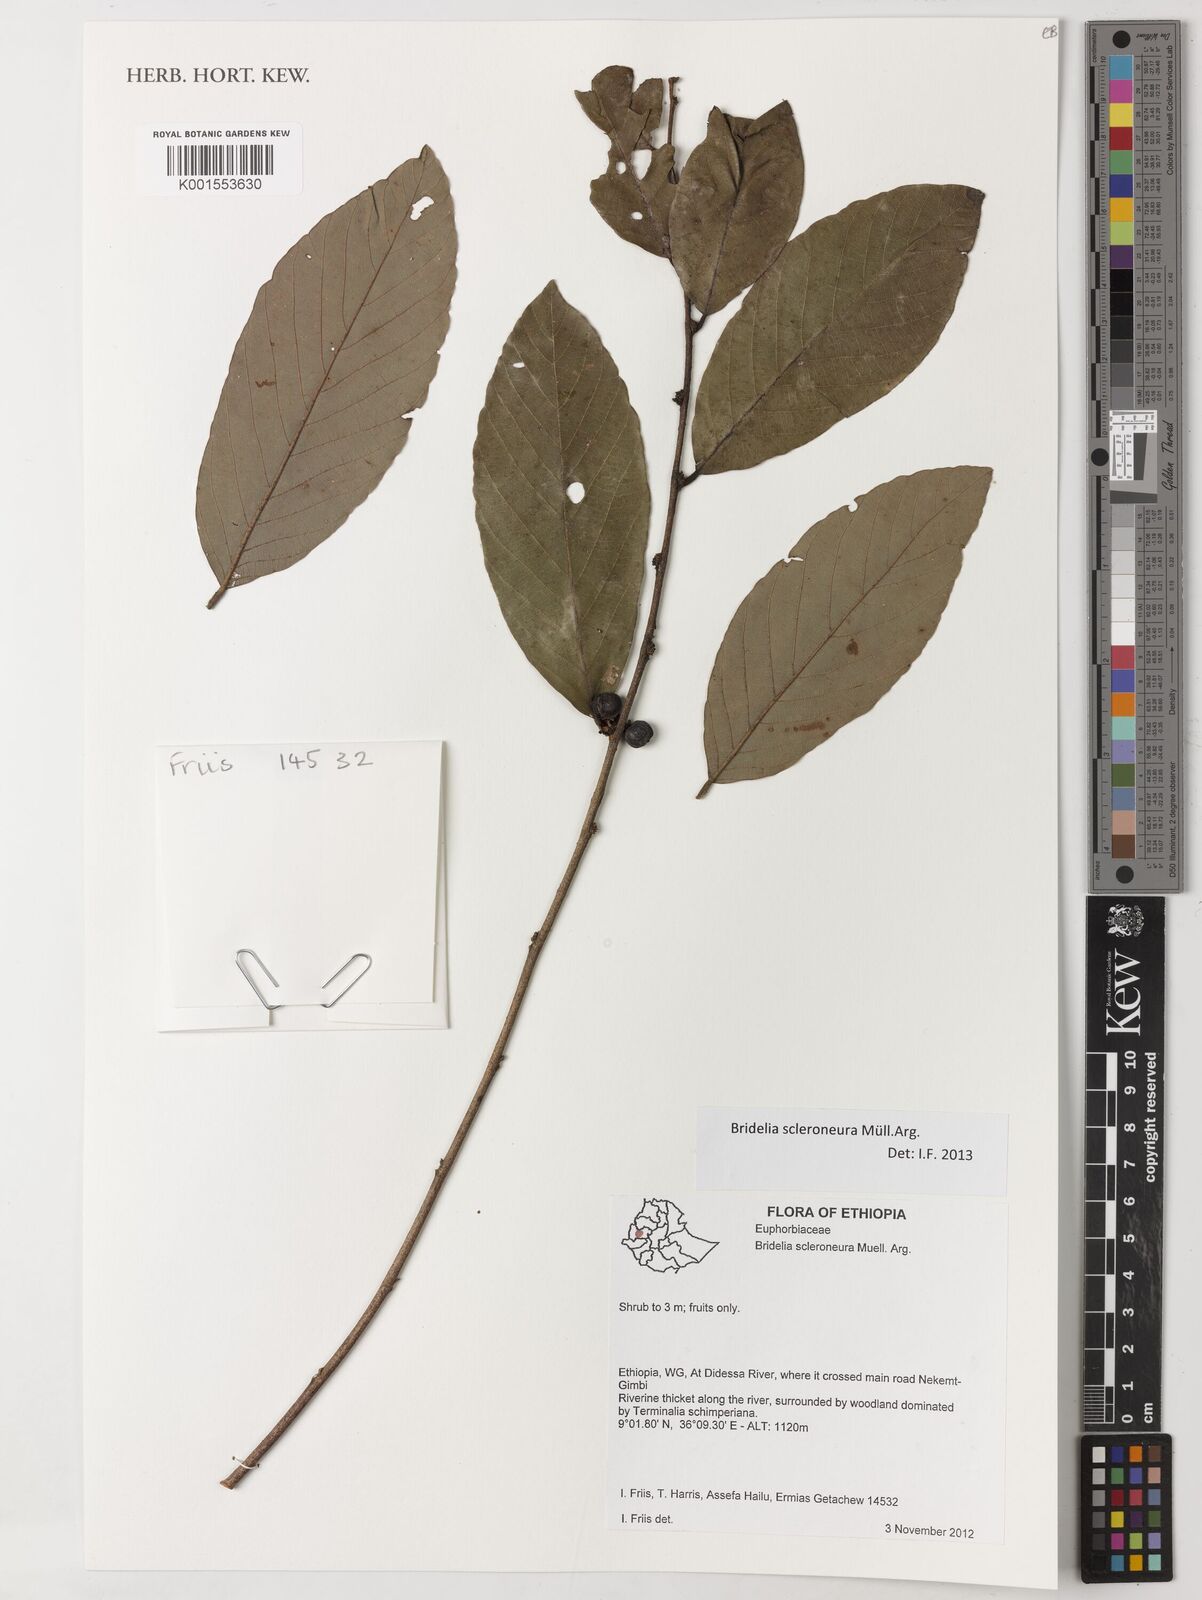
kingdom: Plantae
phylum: Tracheophyta
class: Magnoliopsida
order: Malpighiales
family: Phyllanthaceae
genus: Bridelia
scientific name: Bridelia scleroneura
